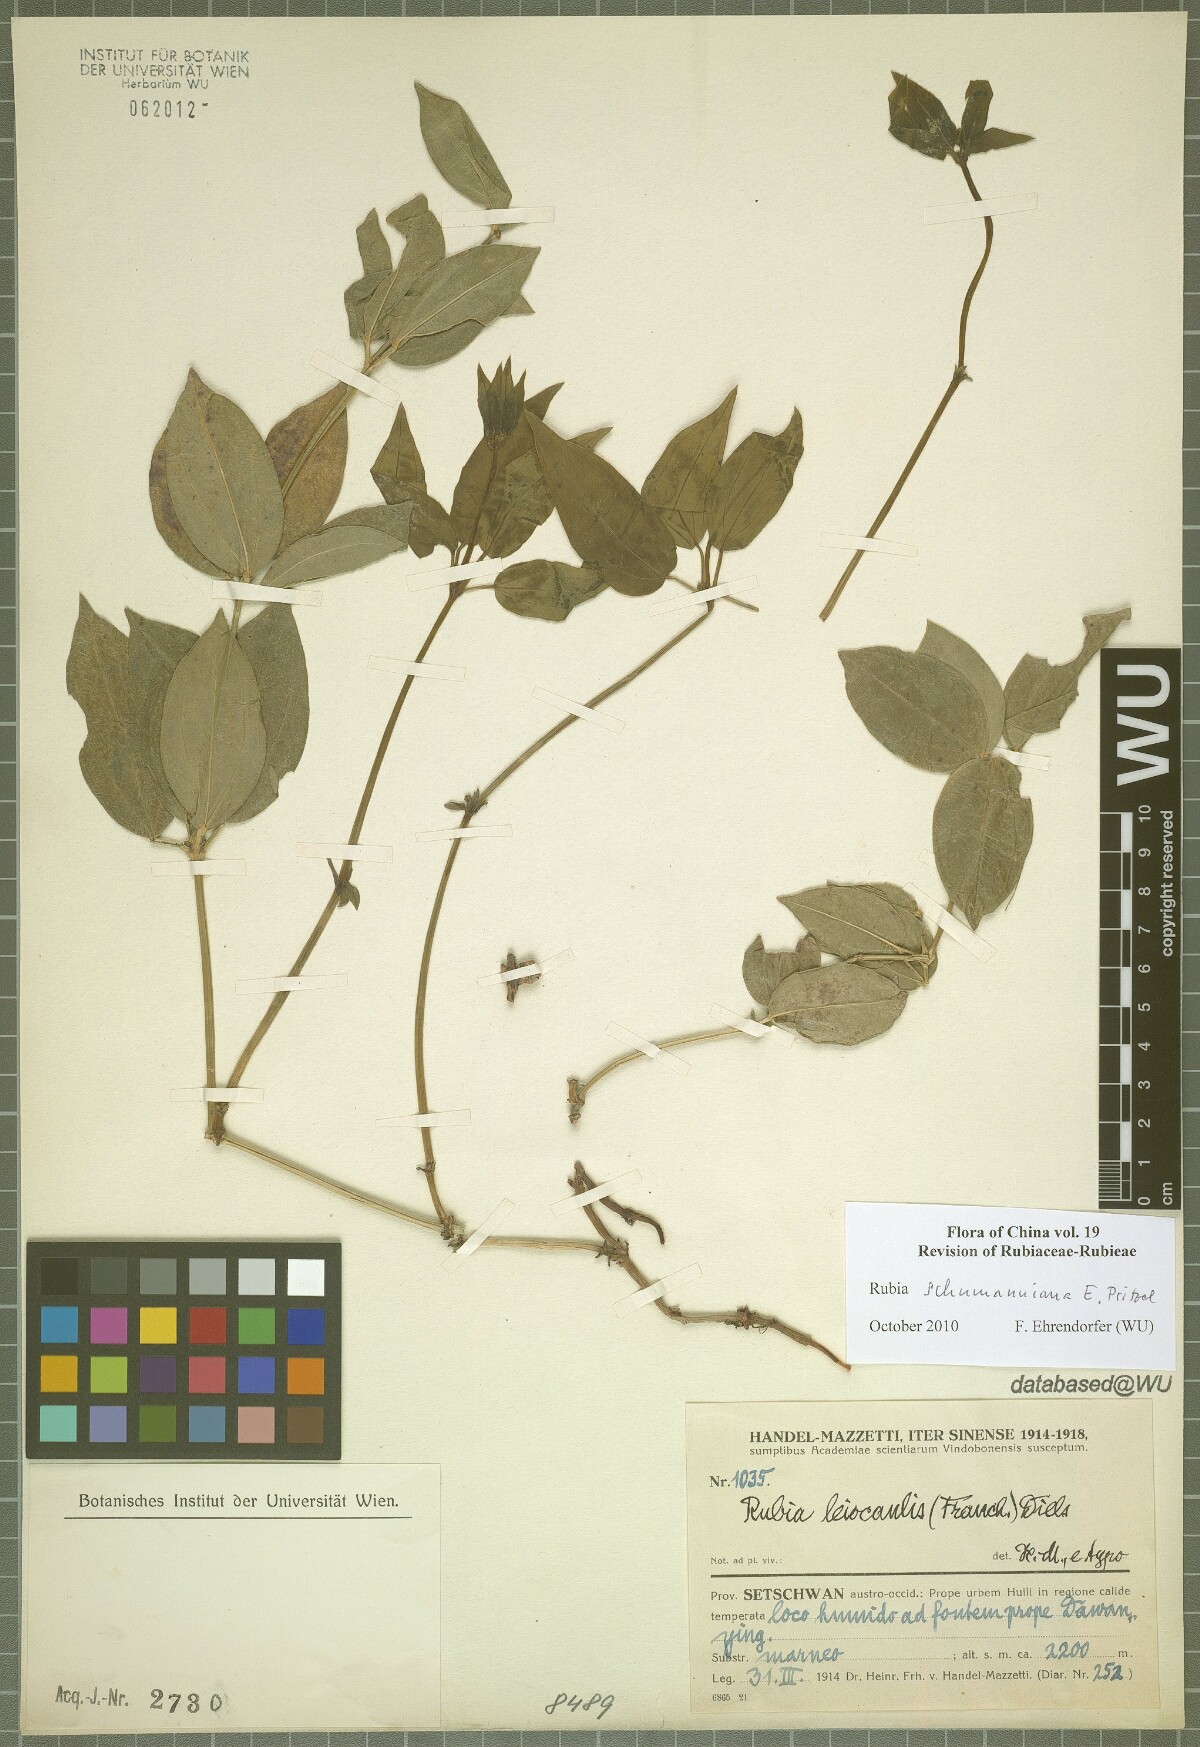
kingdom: Plantae
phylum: Tracheophyta
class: Magnoliopsida
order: Gentianales
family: Rubiaceae
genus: Rubia
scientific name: Rubia schumanniana
